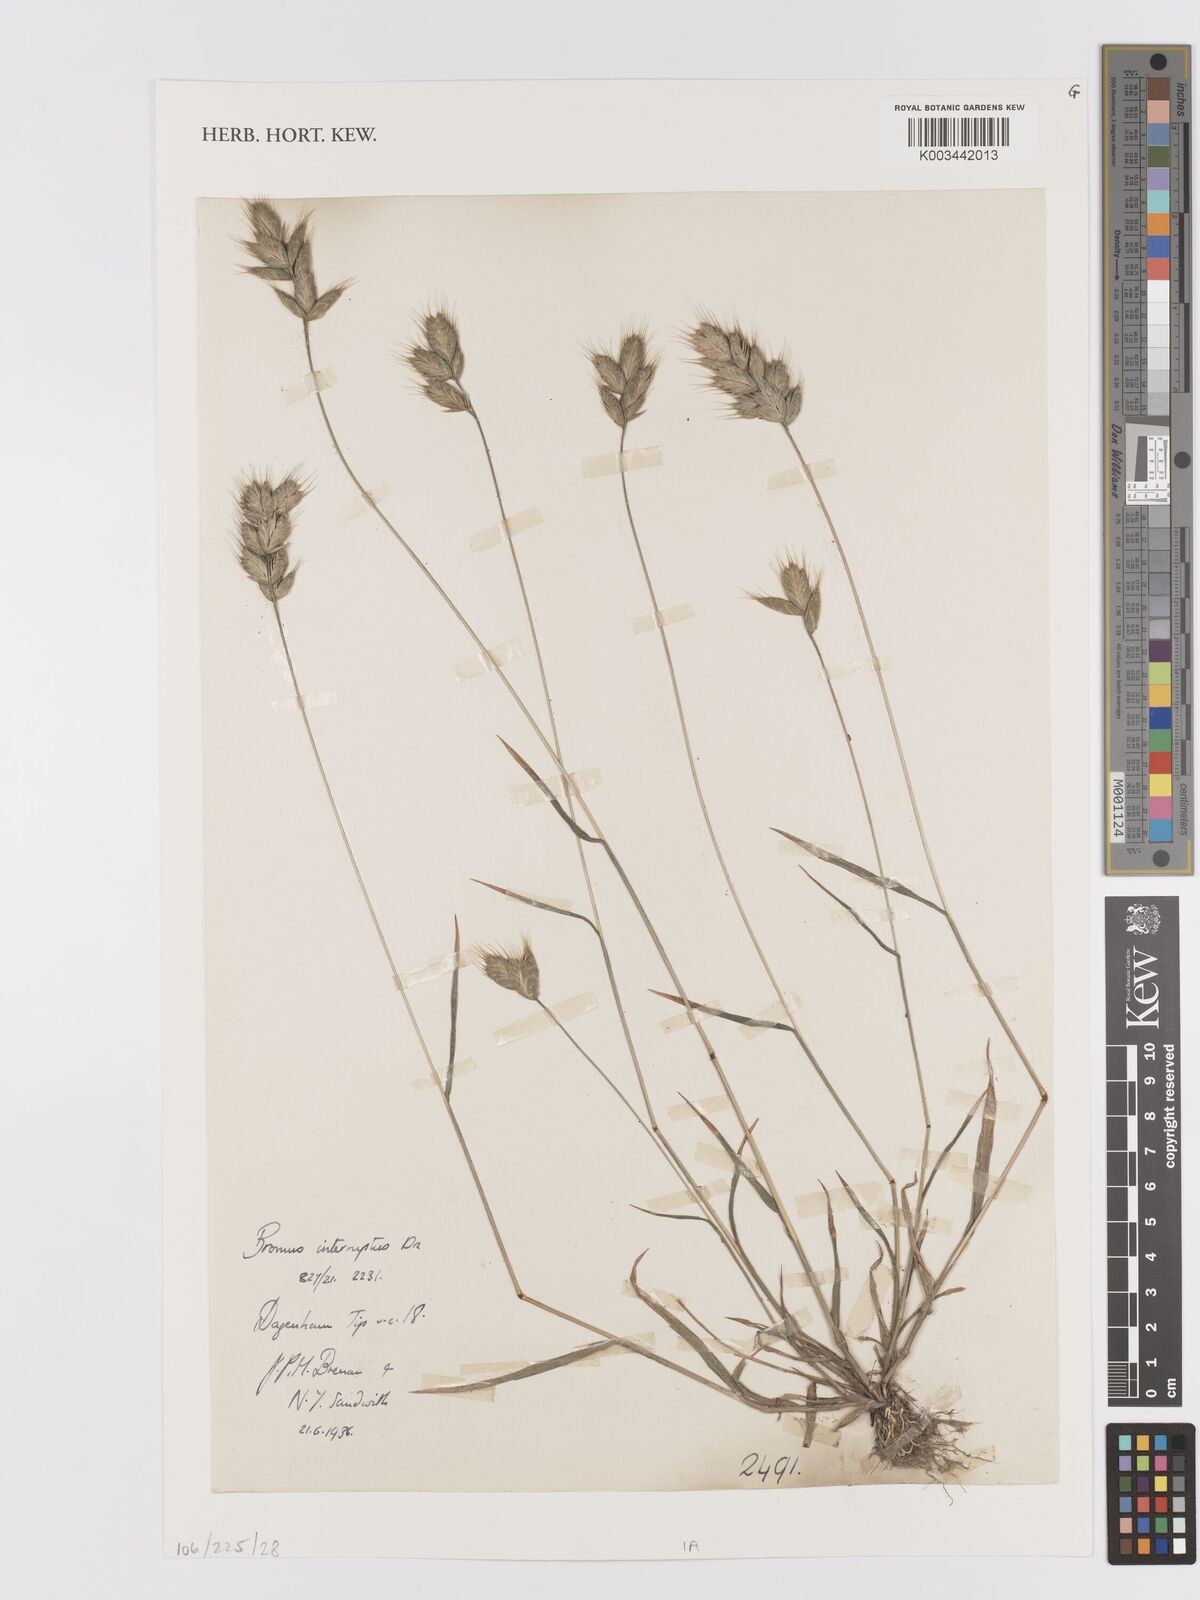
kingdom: Plantae
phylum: Tracheophyta
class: Liliopsida
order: Poales
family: Poaceae
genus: Bromus
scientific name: Bromus interruptus
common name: Interrupted brome
